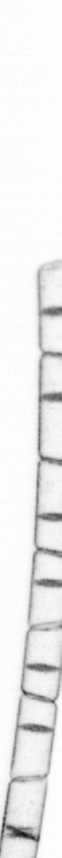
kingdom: Chromista
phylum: Ochrophyta
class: Bacillariophyceae
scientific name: Bacillariophyceae
